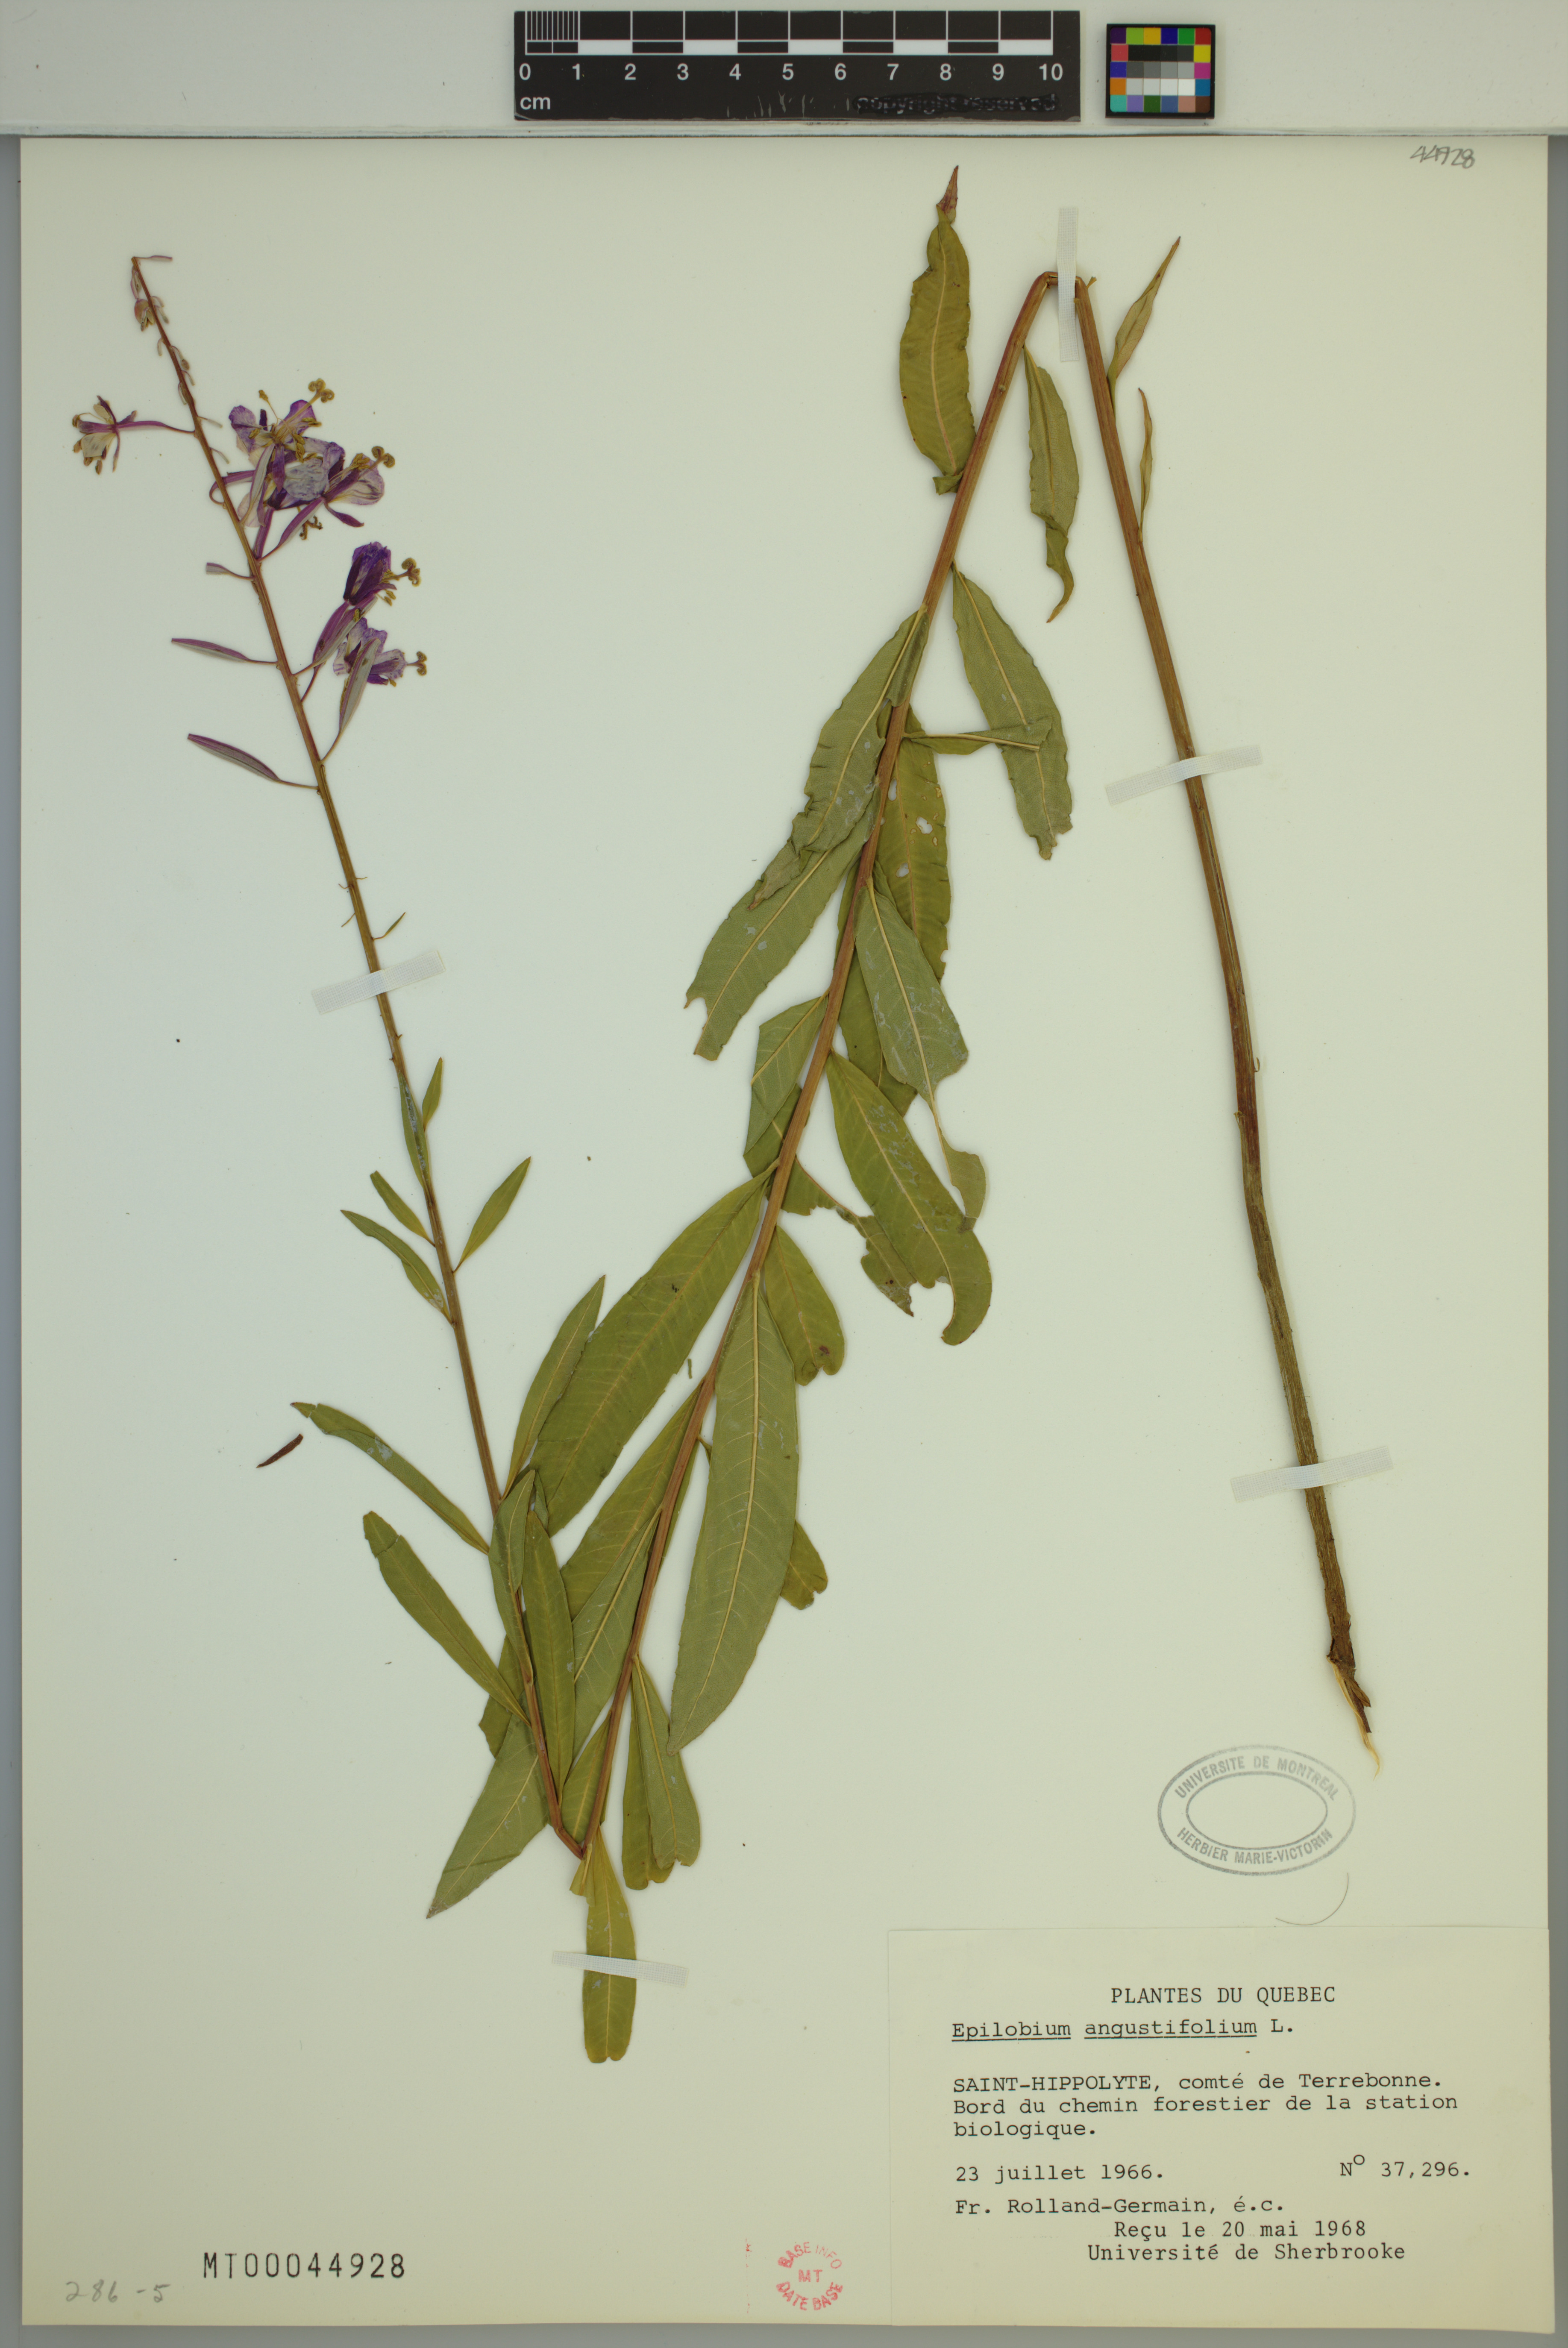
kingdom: Plantae
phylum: Tracheophyta
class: Magnoliopsida
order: Myrtales
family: Onagraceae
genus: Chamaenerion
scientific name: Chamaenerion angustifolium
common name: Fireweed
